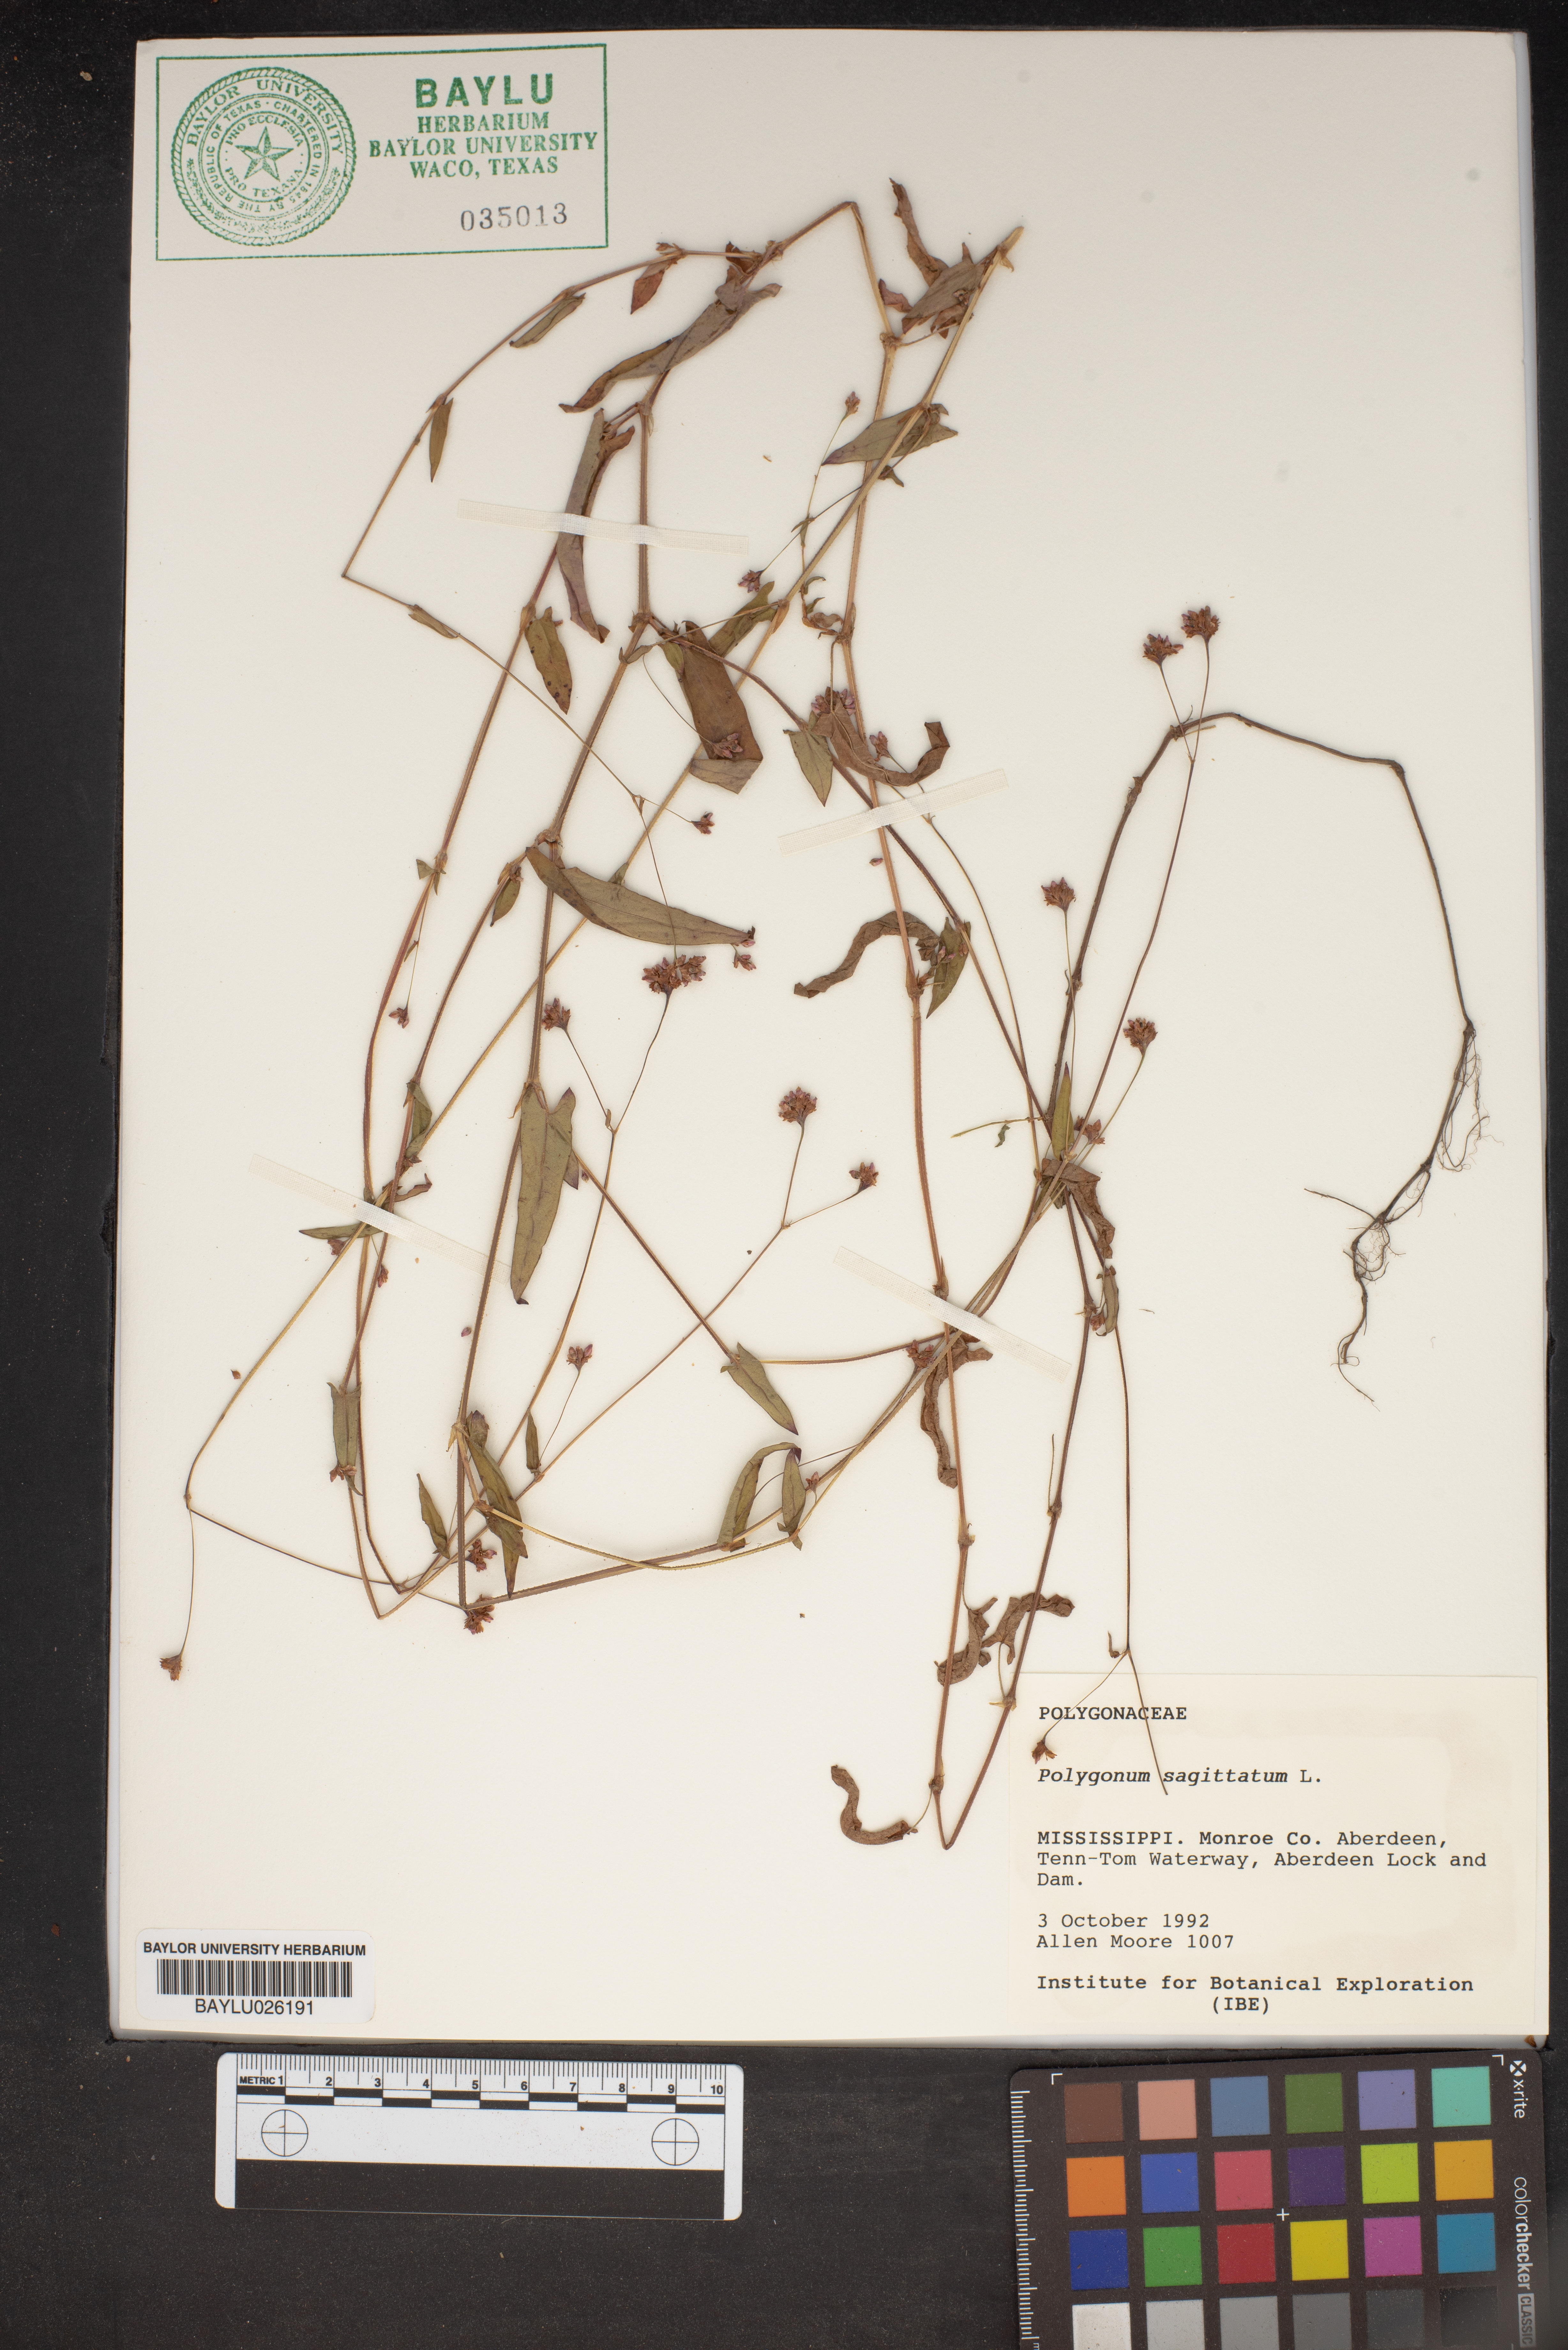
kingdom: Plantae
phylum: Tracheophyta
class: Magnoliopsida
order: Caryophyllales
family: Polygonaceae
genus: Persicaria
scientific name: Persicaria sagittata
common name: American tearthumb
